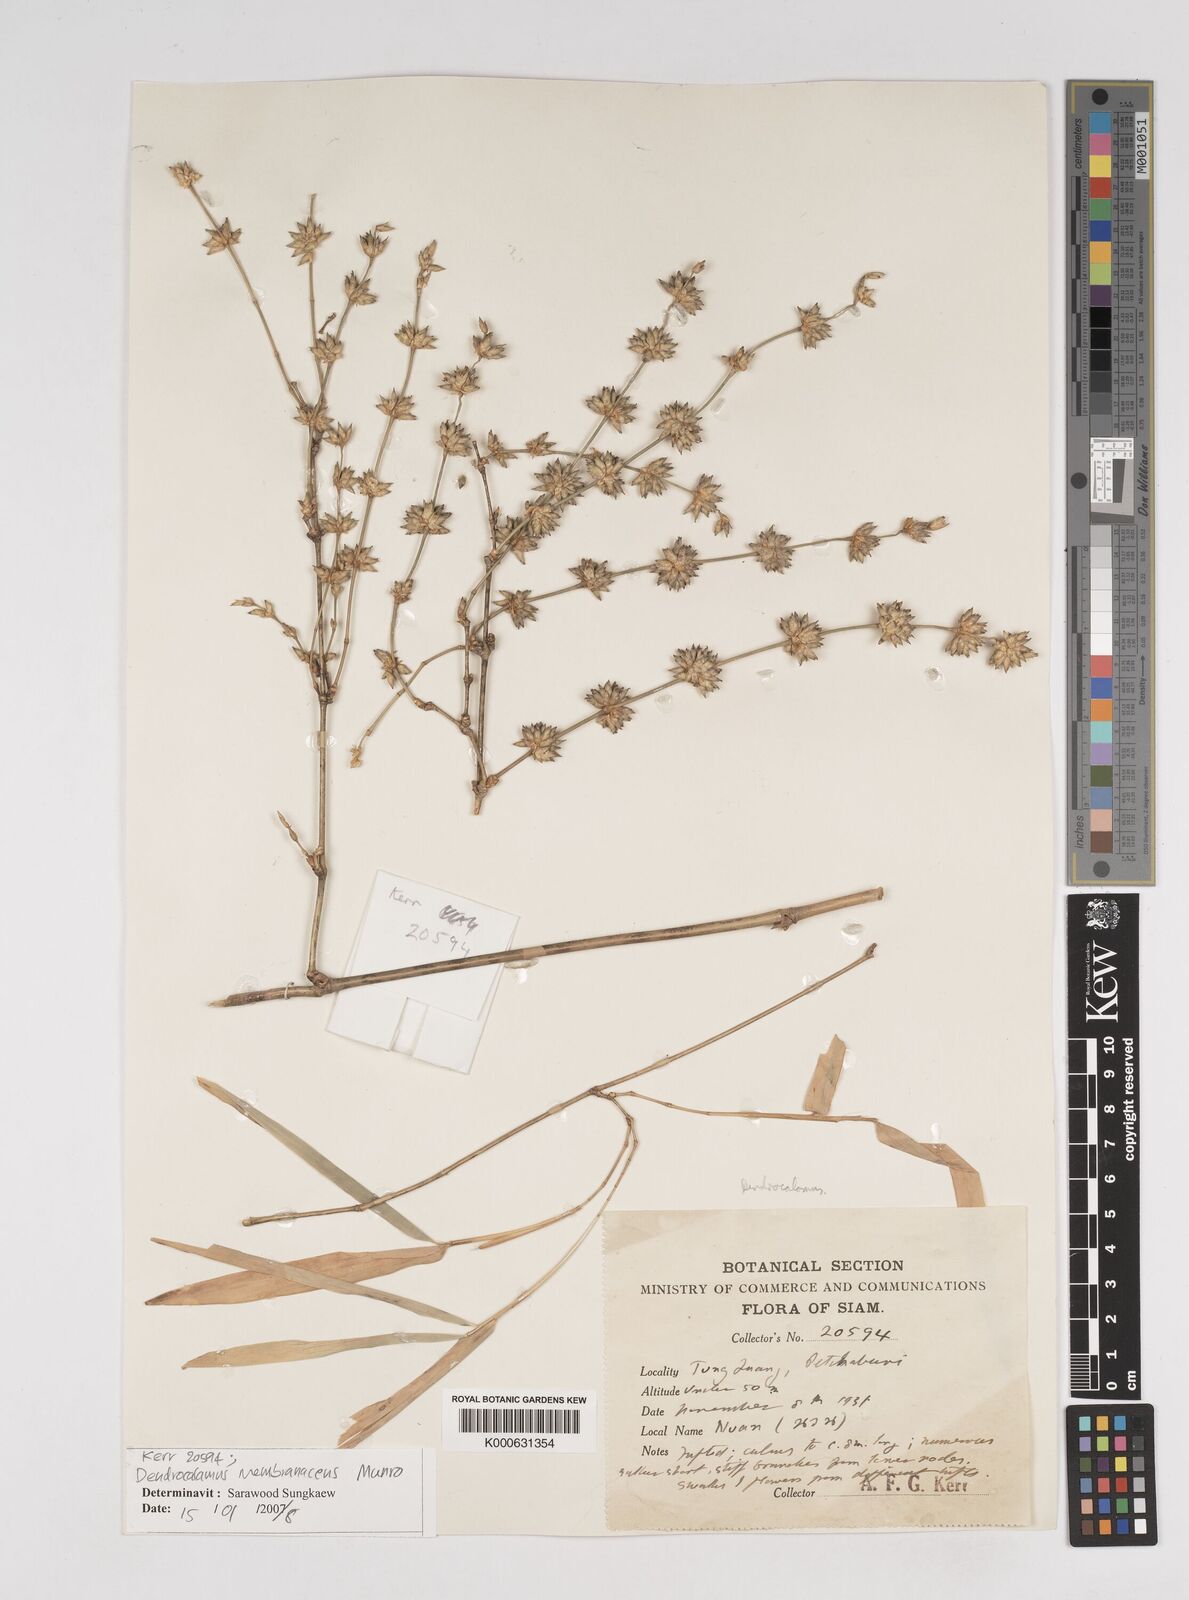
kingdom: Plantae
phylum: Tracheophyta
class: Liliopsida
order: Poales
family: Poaceae
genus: Dendrocalamus
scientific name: Dendrocalamus membranaceus
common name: White bamboo
